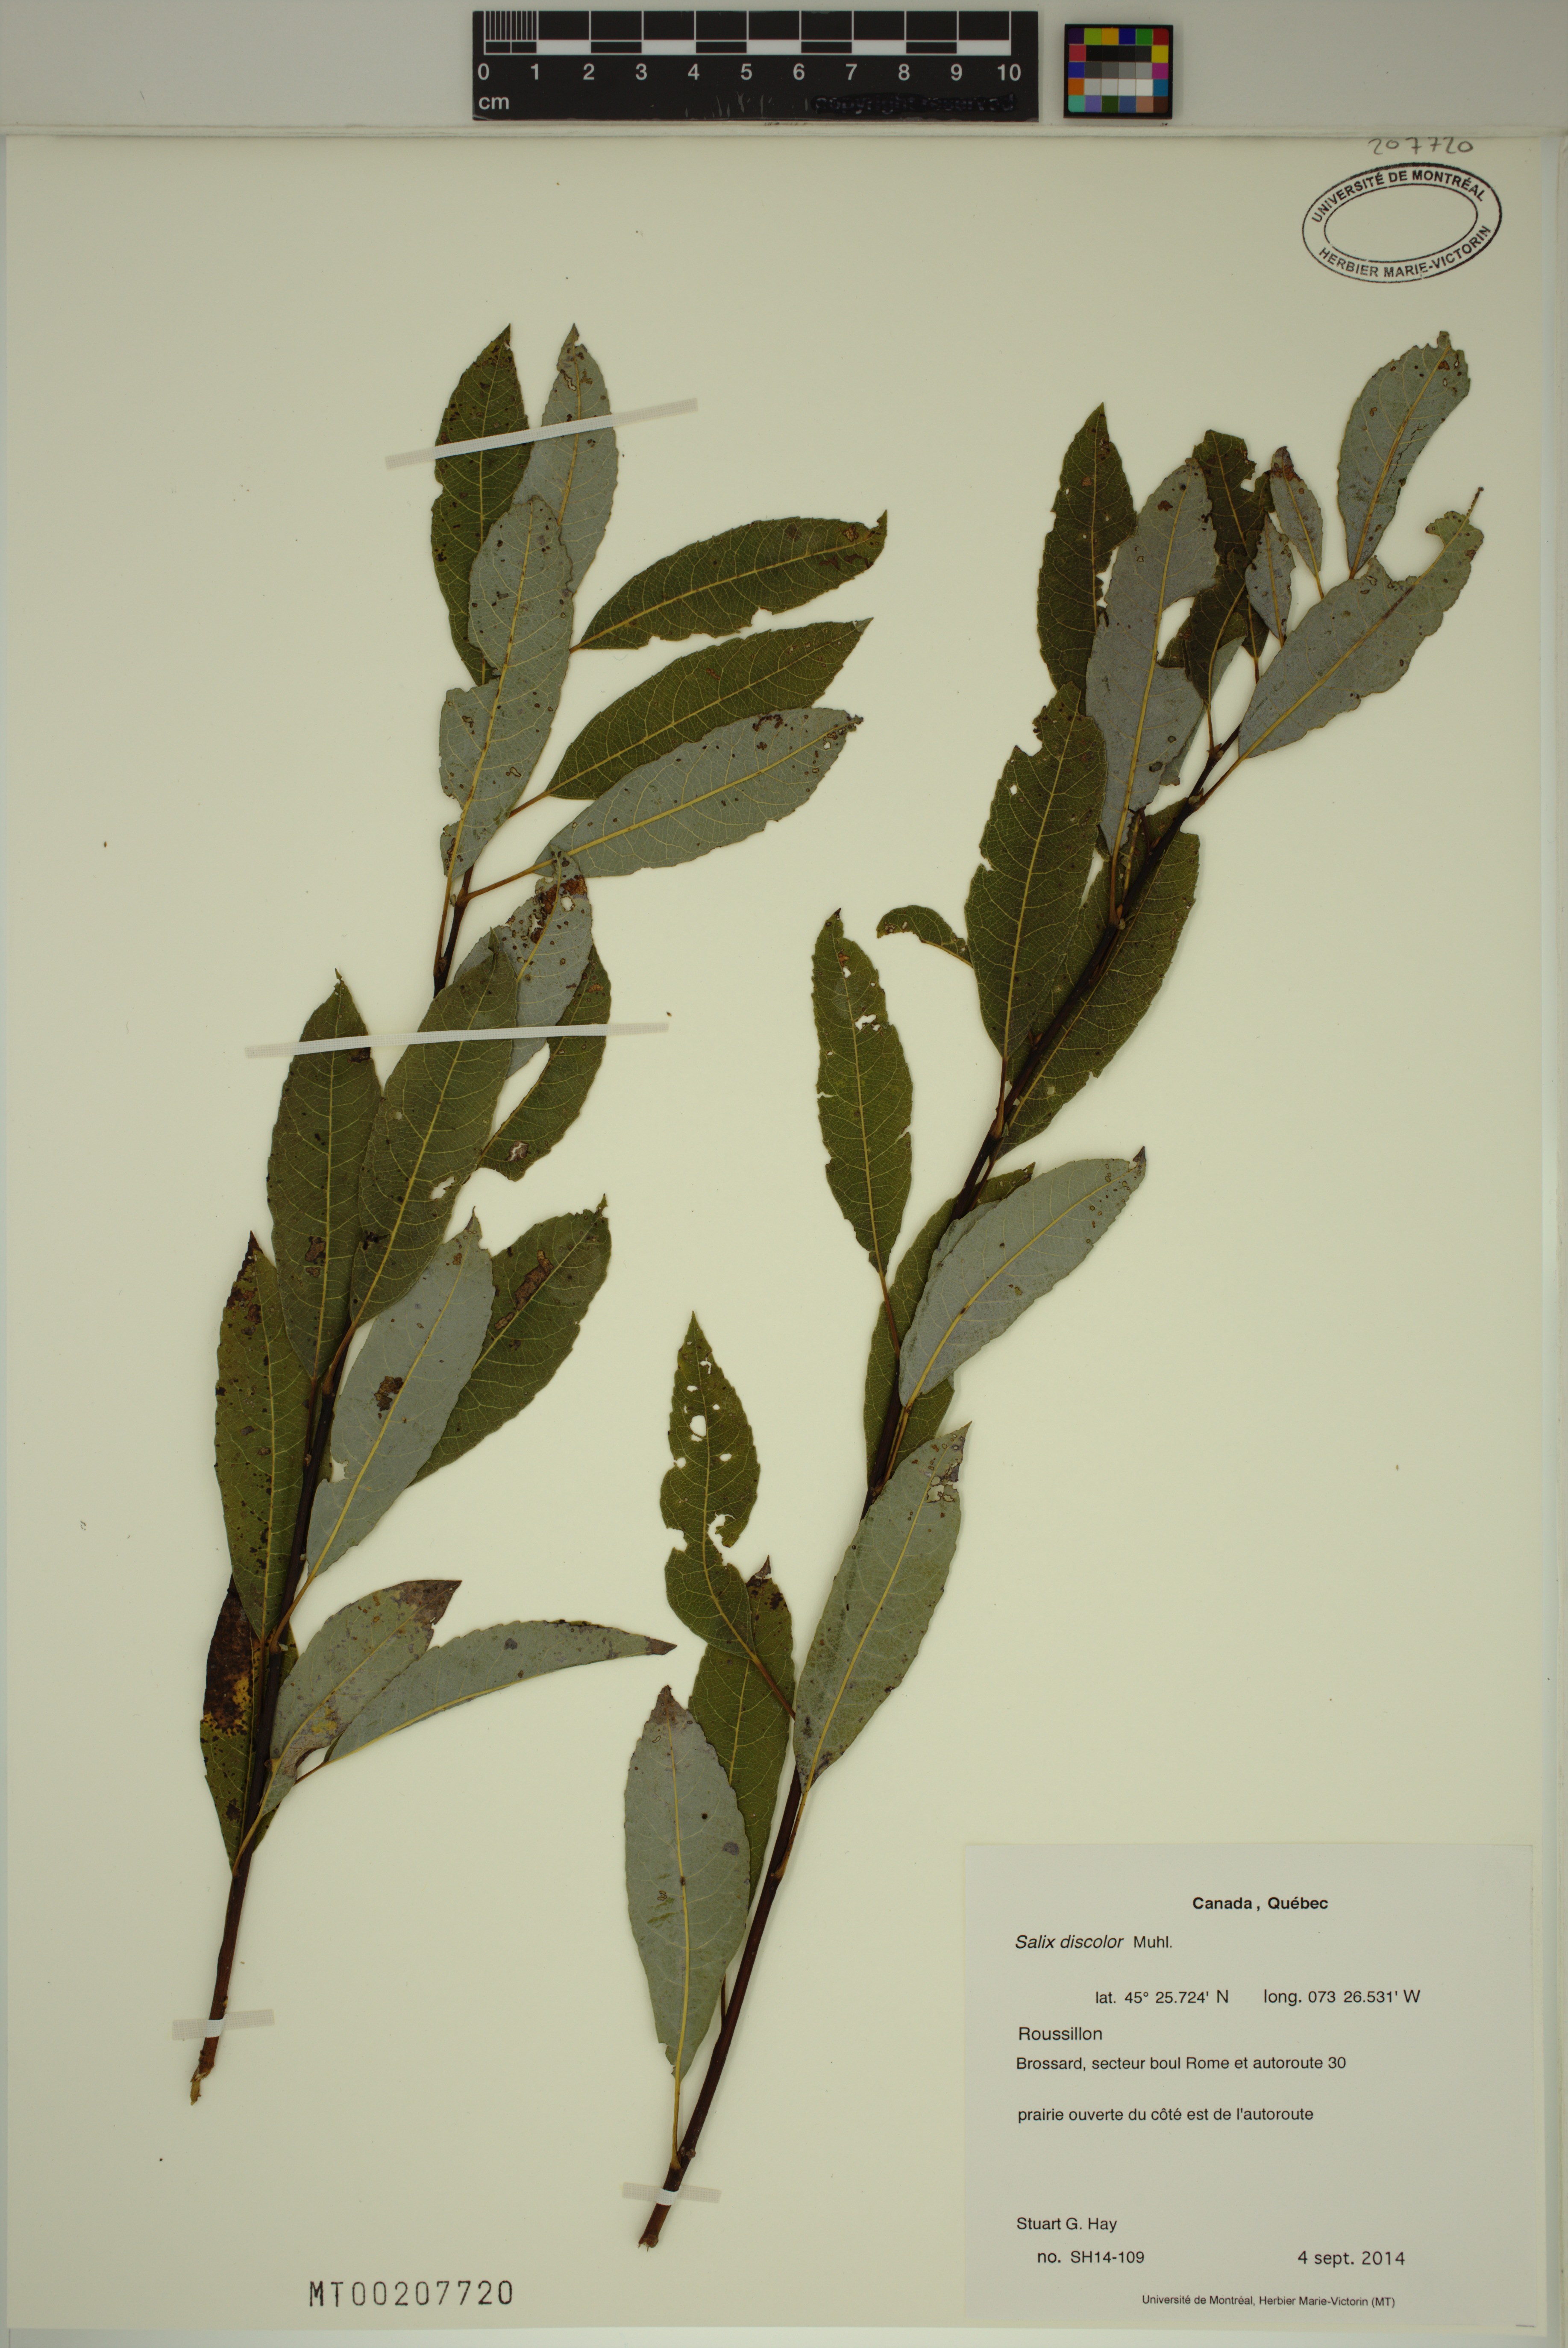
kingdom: Plantae
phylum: Tracheophyta
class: Magnoliopsida
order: Malpighiales
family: Salicaceae
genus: Salix
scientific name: Salix discolor
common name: Glaucous willow
